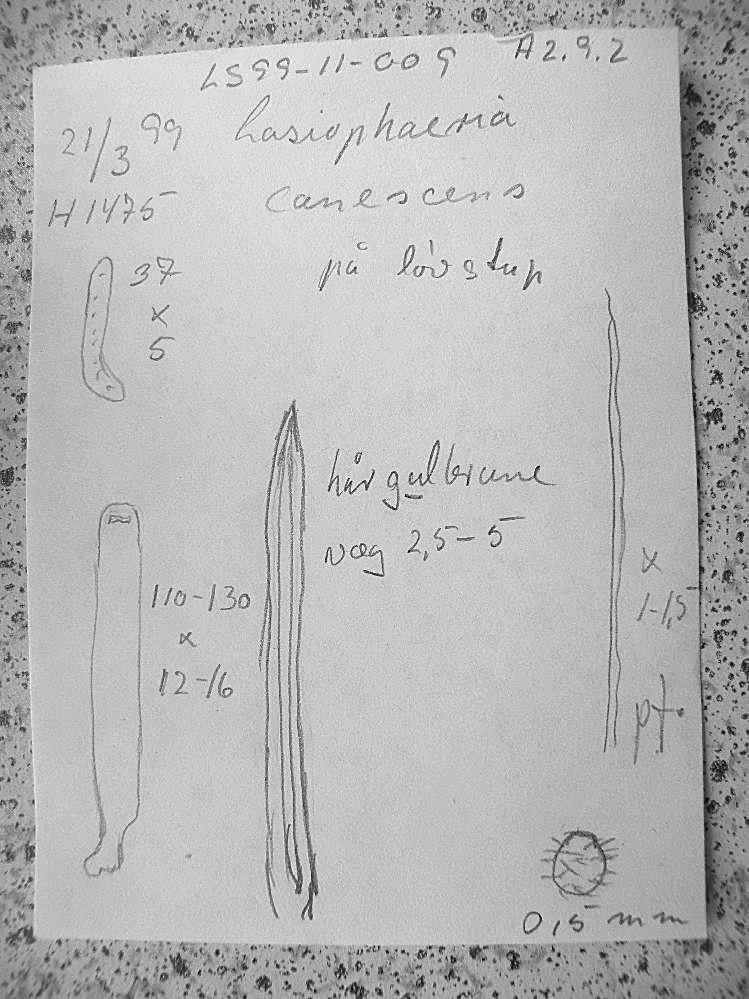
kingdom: Fungi
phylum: Ascomycota
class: Sordariomycetes
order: Sordariales
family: Helminthosphaeriaceae
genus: Echinosphaeria
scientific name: Echinosphaeria strigosa
